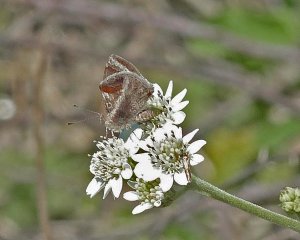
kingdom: Animalia
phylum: Arthropoda
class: Insecta
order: Lepidoptera
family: Lycaenidae
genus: Strymon
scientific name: Strymon bazochii
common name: Lantana Scrub-Hairstreak
